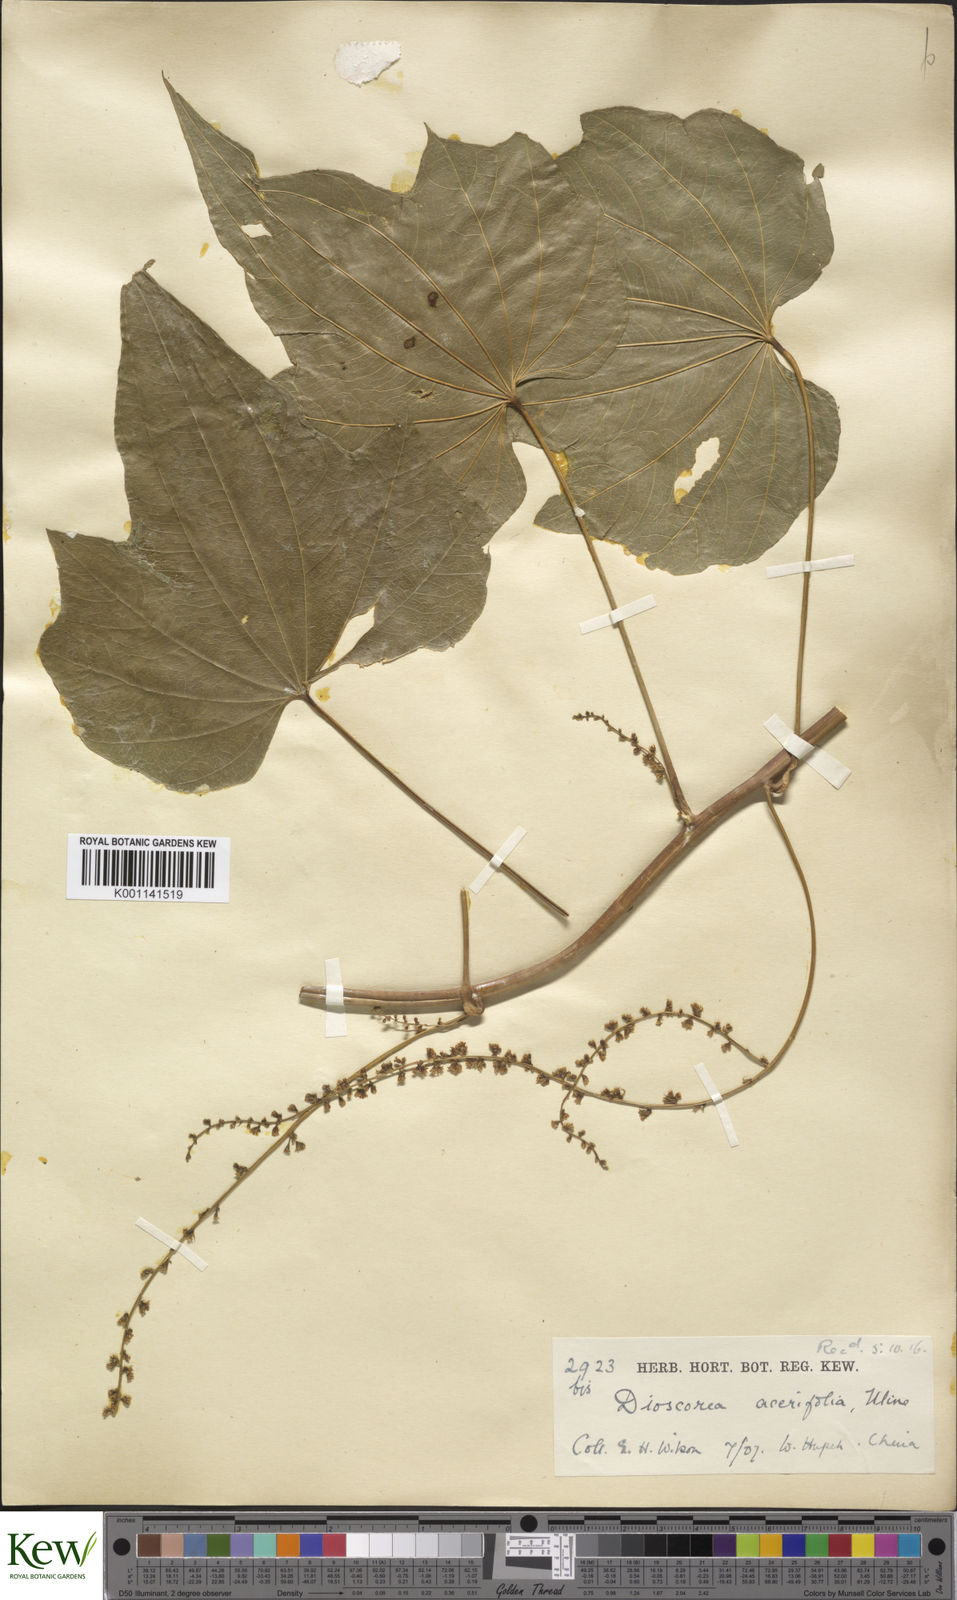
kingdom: Plantae
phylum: Tracheophyta
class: Liliopsida
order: Dioscoreales
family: Dioscoreaceae
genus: Dioscorea
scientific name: Dioscorea nipponica
